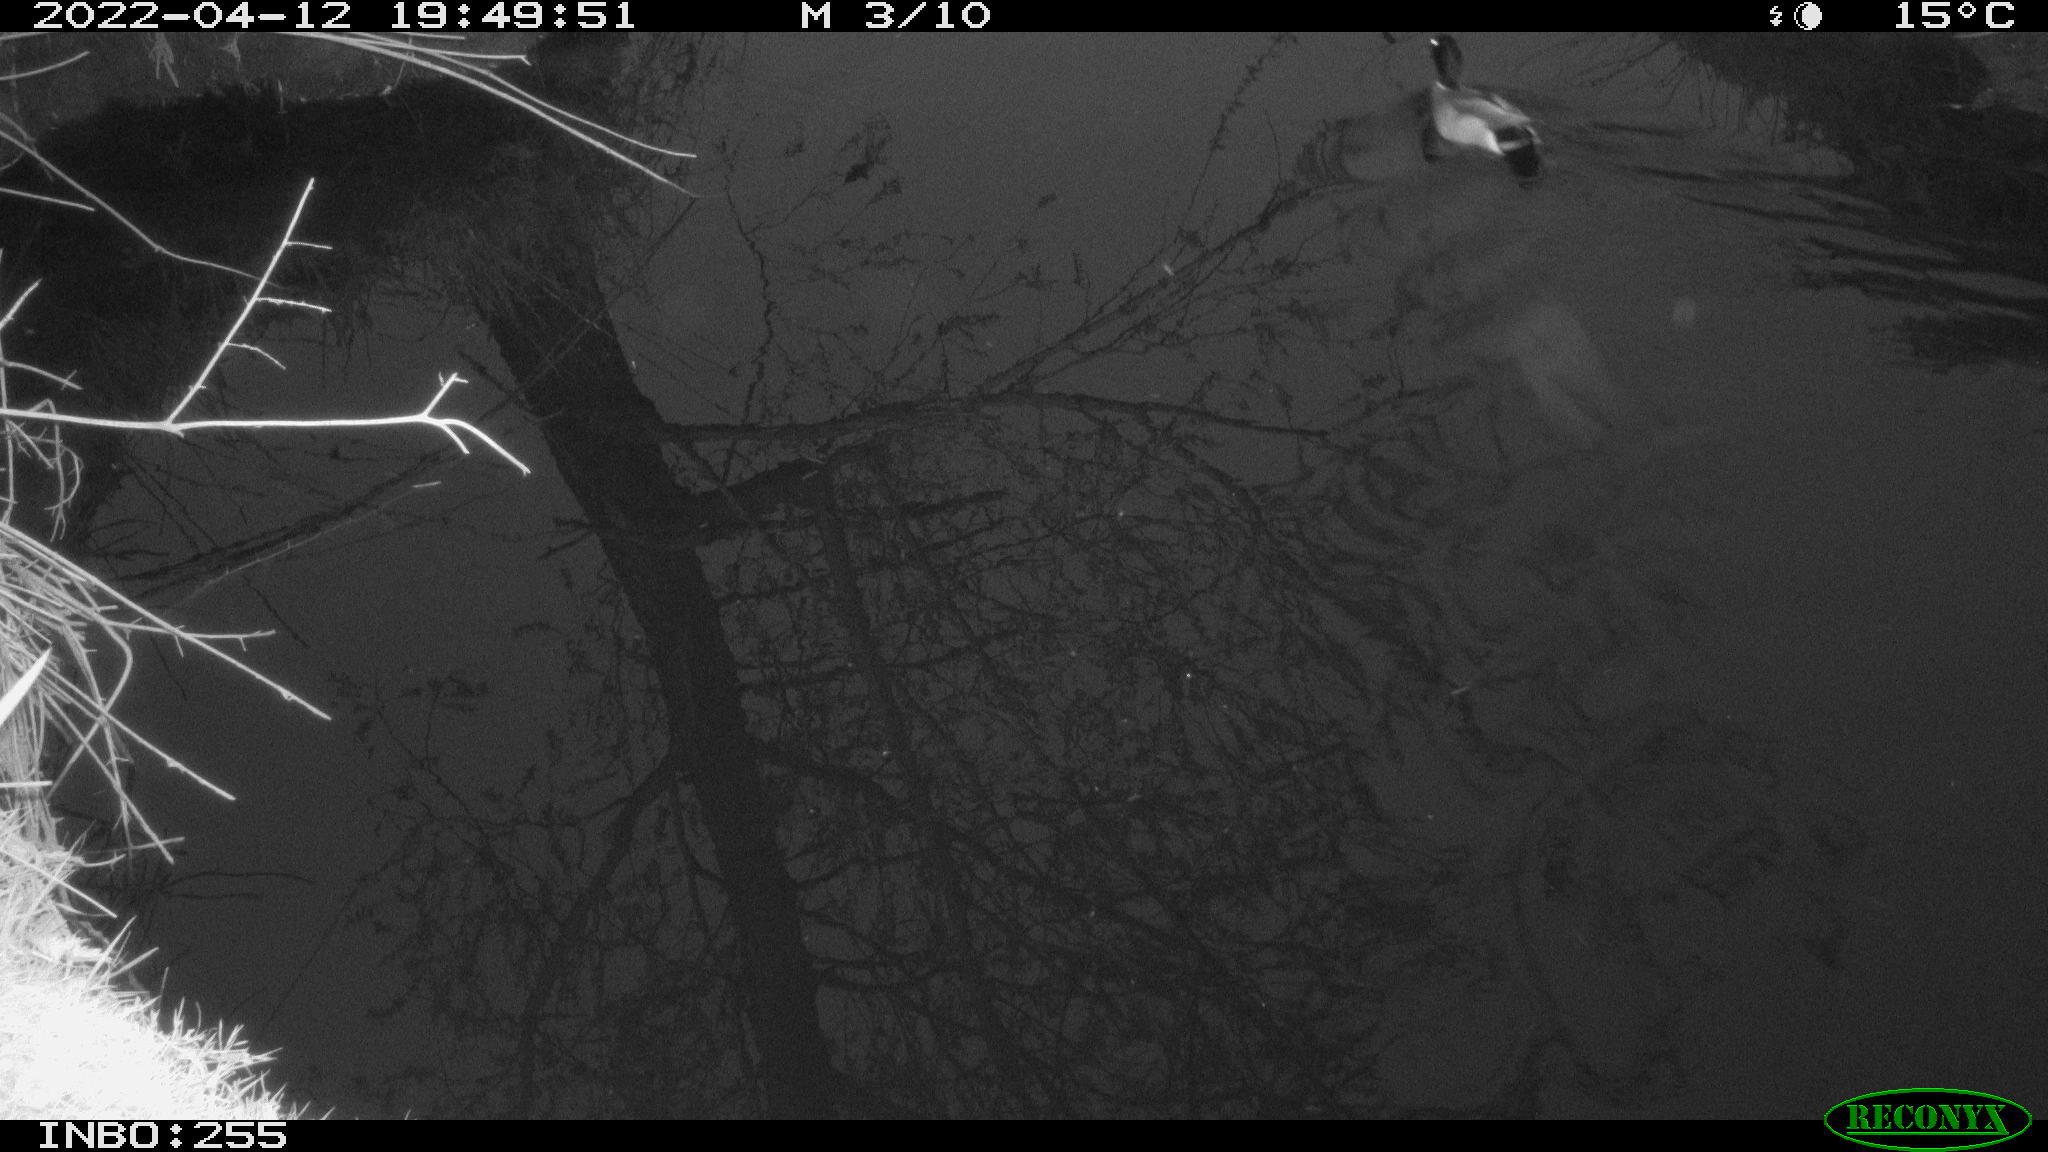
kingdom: Animalia
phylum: Chordata
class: Aves
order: Anseriformes
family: Anatidae
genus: Anas
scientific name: Anas platyrhynchos
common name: Mallard
